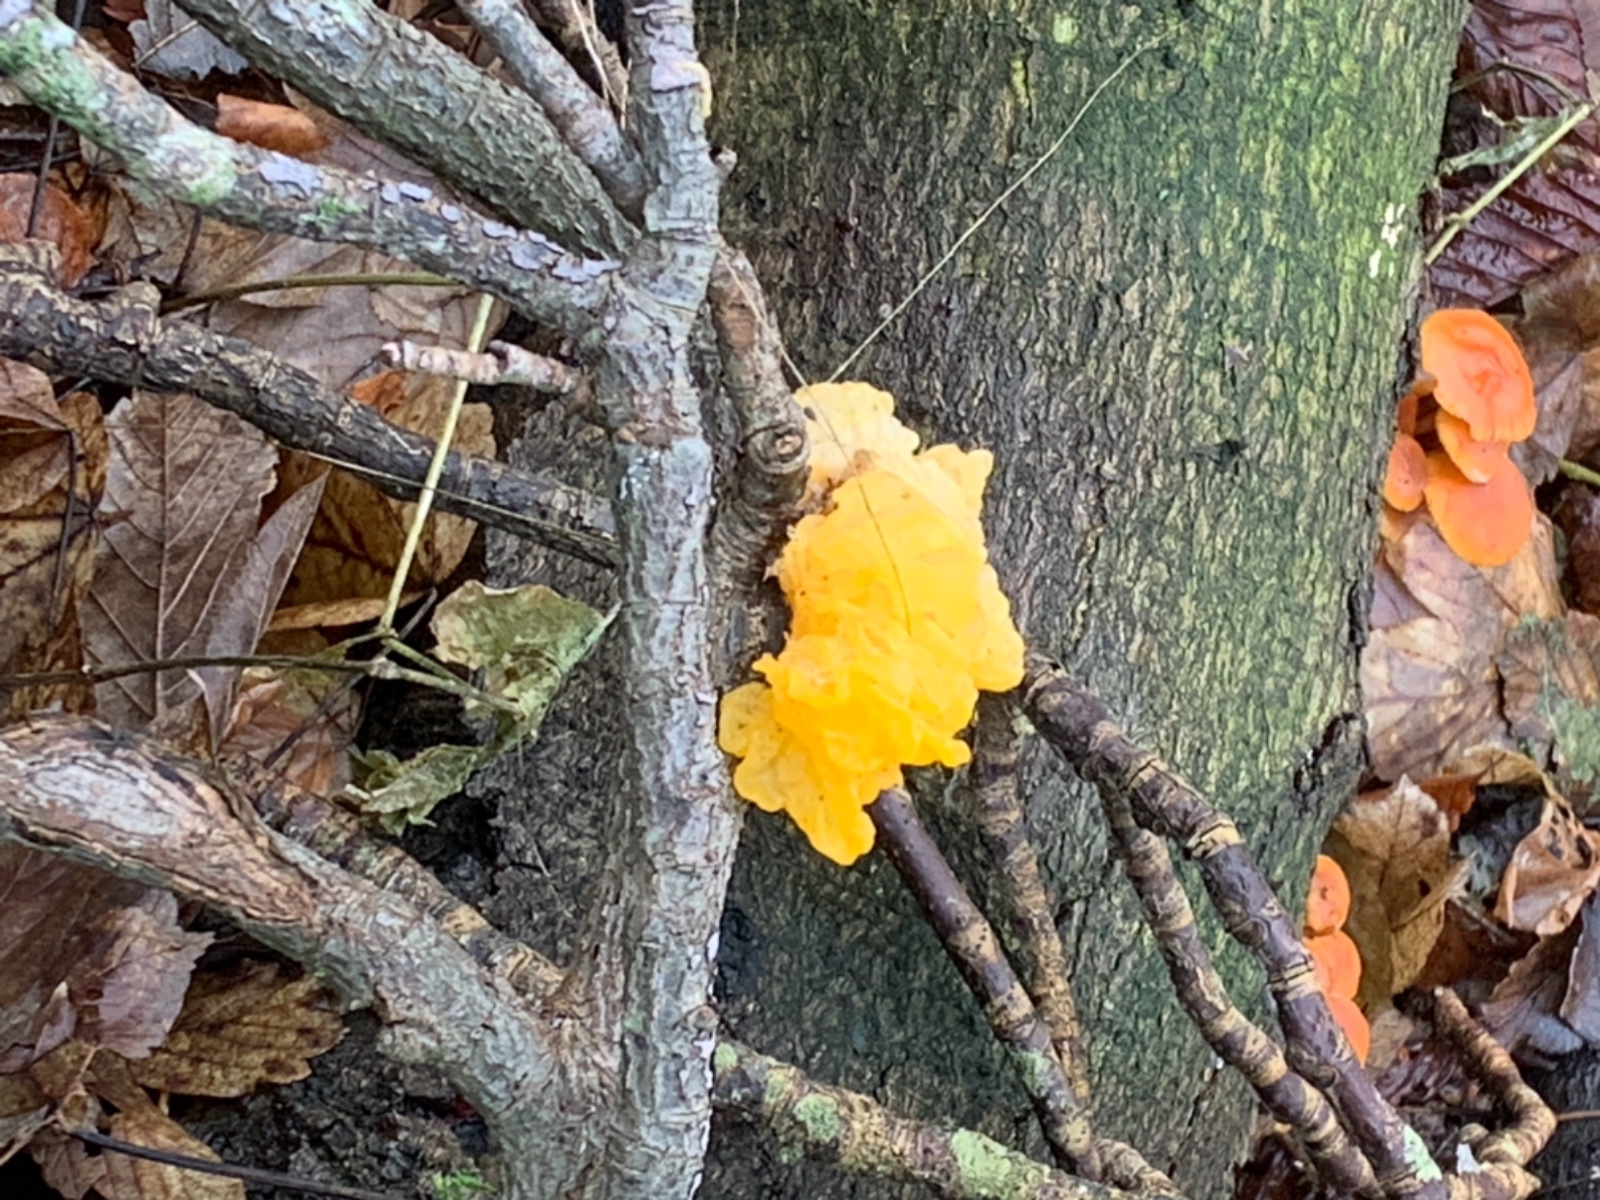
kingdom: Fungi
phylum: Basidiomycota
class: Tremellomycetes
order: Tremellales
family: Tremellaceae
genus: Tremella
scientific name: Tremella mesenterica
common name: gul bævresvamp
